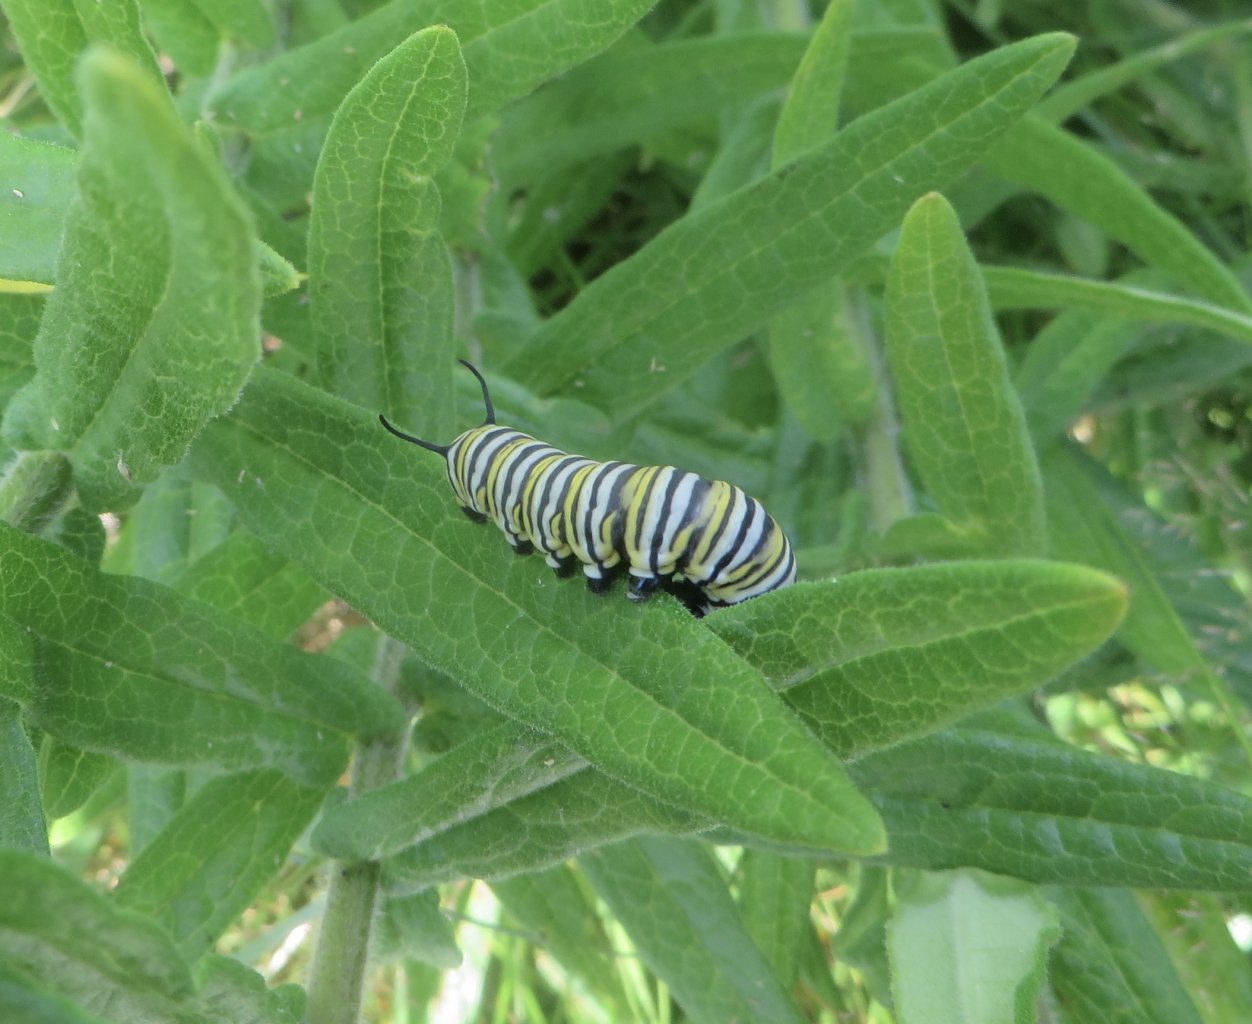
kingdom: Animalia
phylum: Arthropoda
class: Insecta
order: Lepidoptera
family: Nymphalidae
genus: Danaus
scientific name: Danaus plexippus
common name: Monarch
